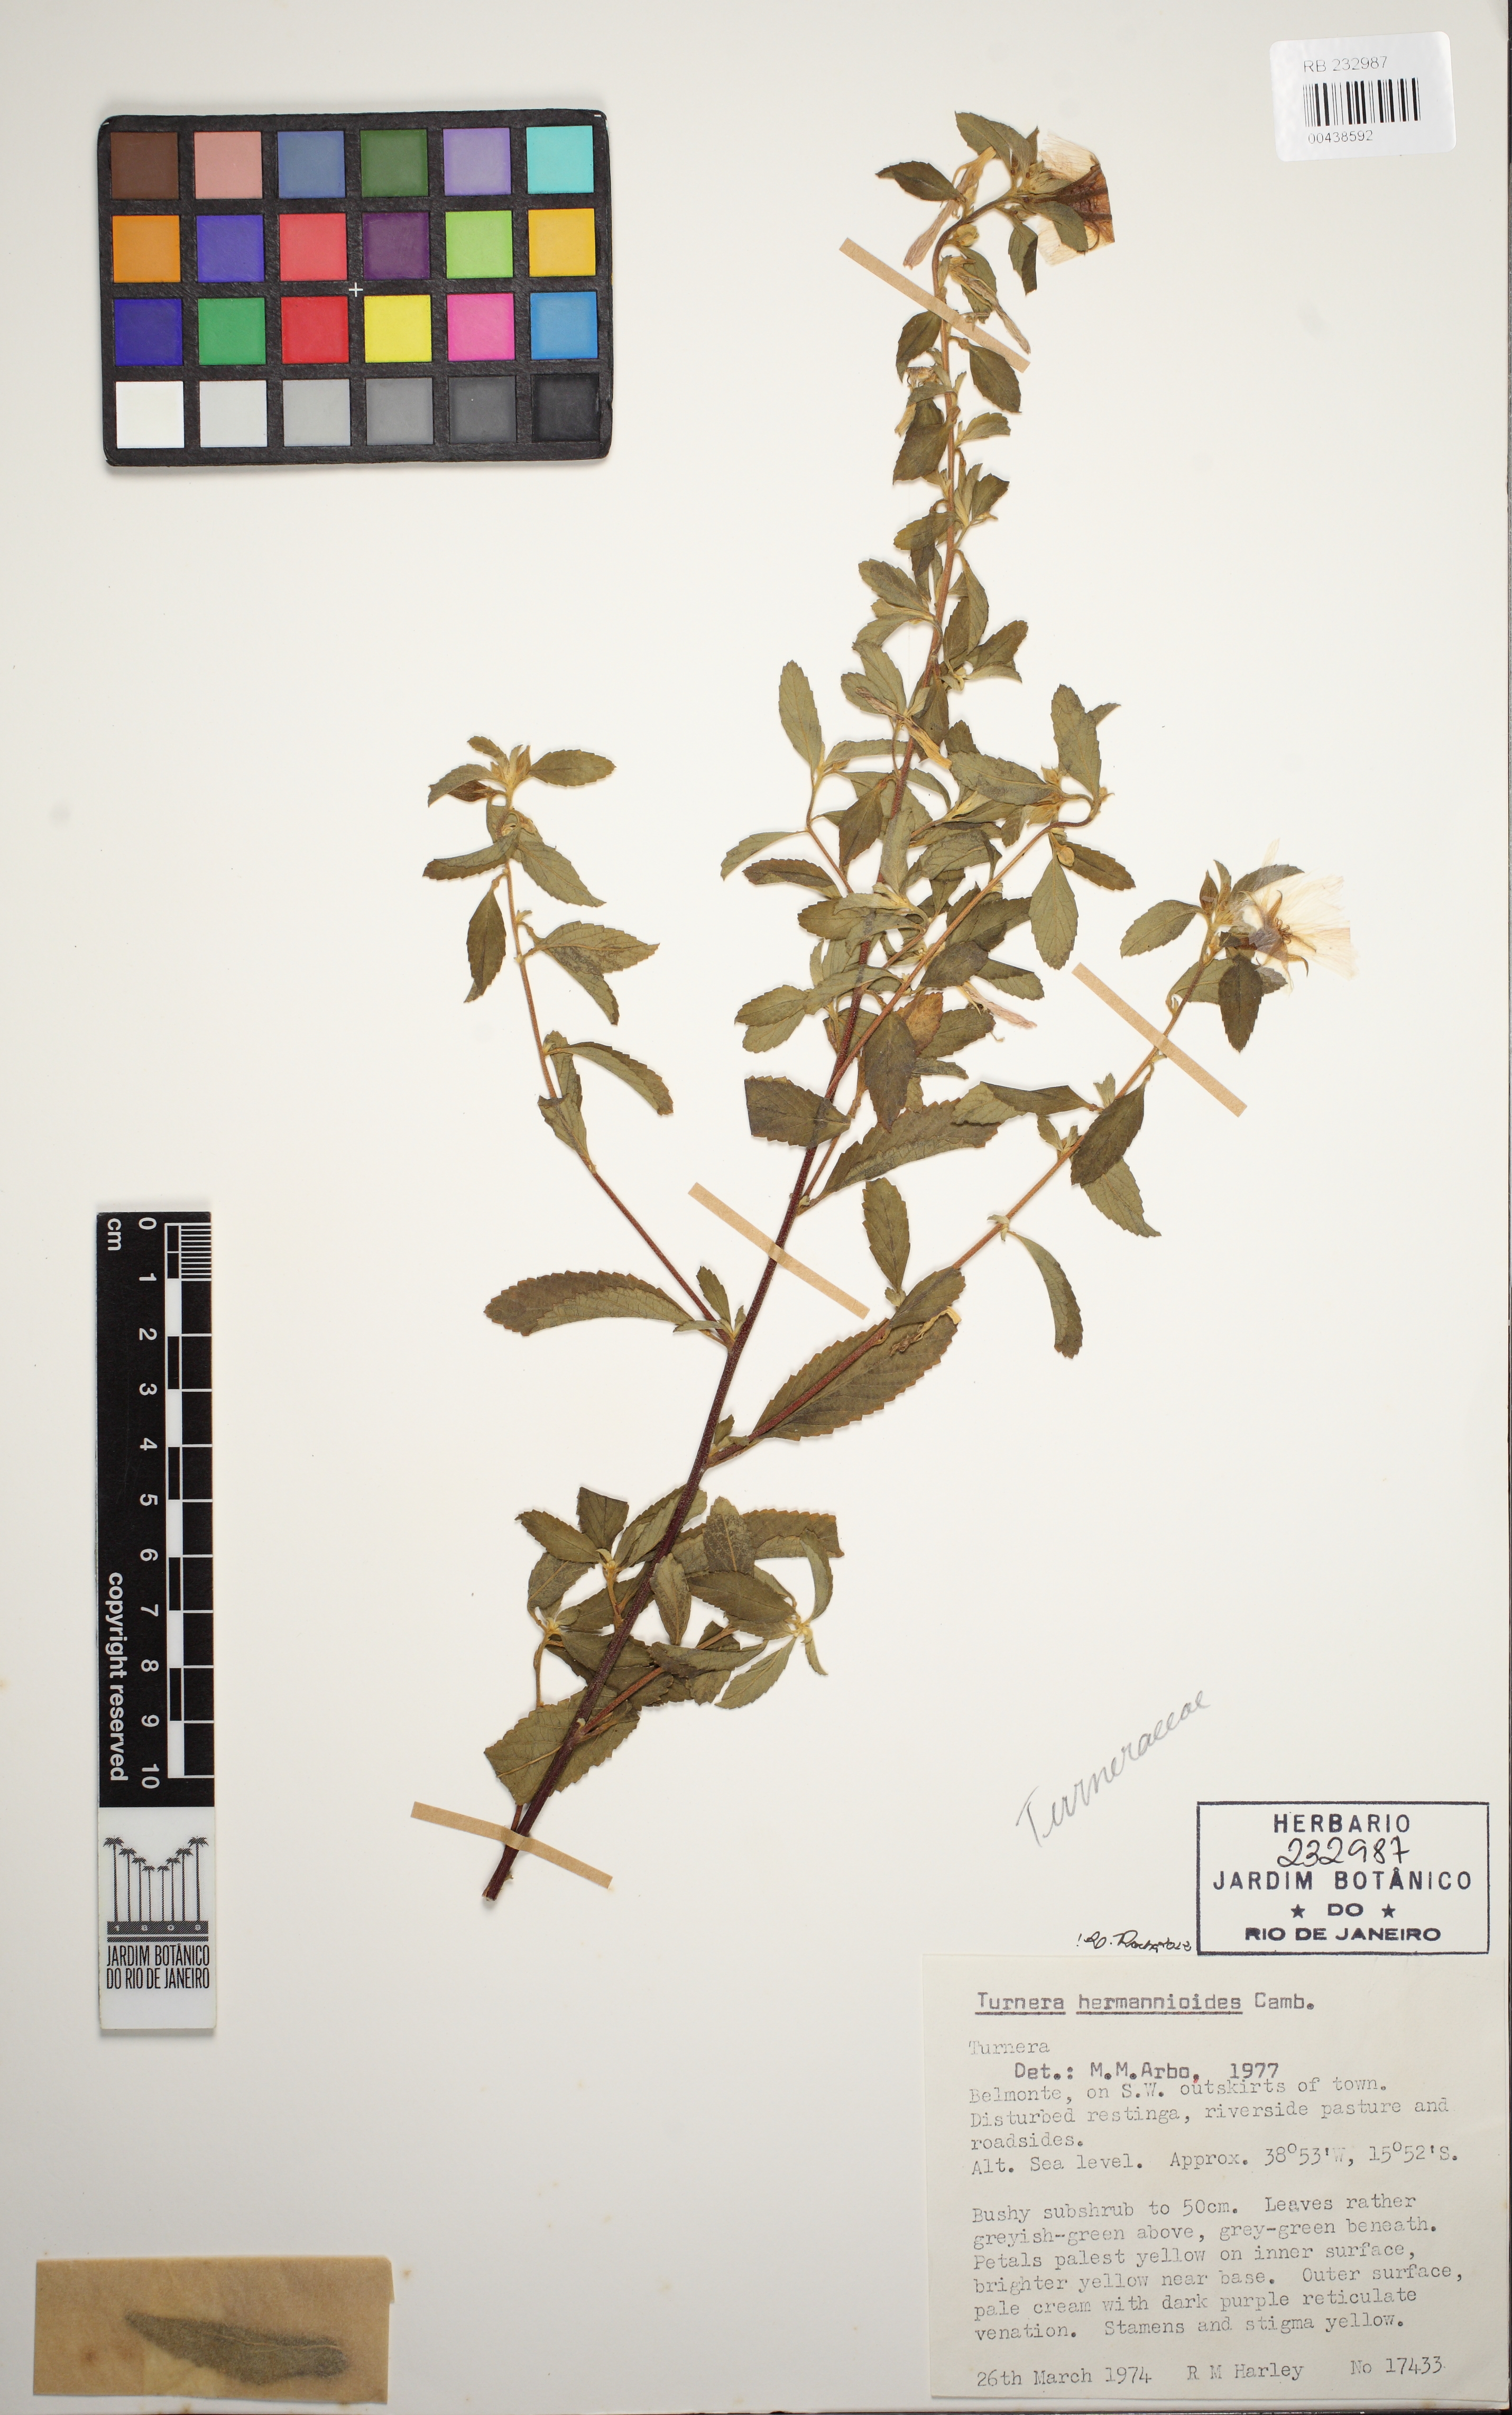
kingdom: Plantae
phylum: Tracheophyta
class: Magnoliopsida
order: Malpighiales
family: Turneraceae
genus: Turnera
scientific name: Turnera hermannioides
